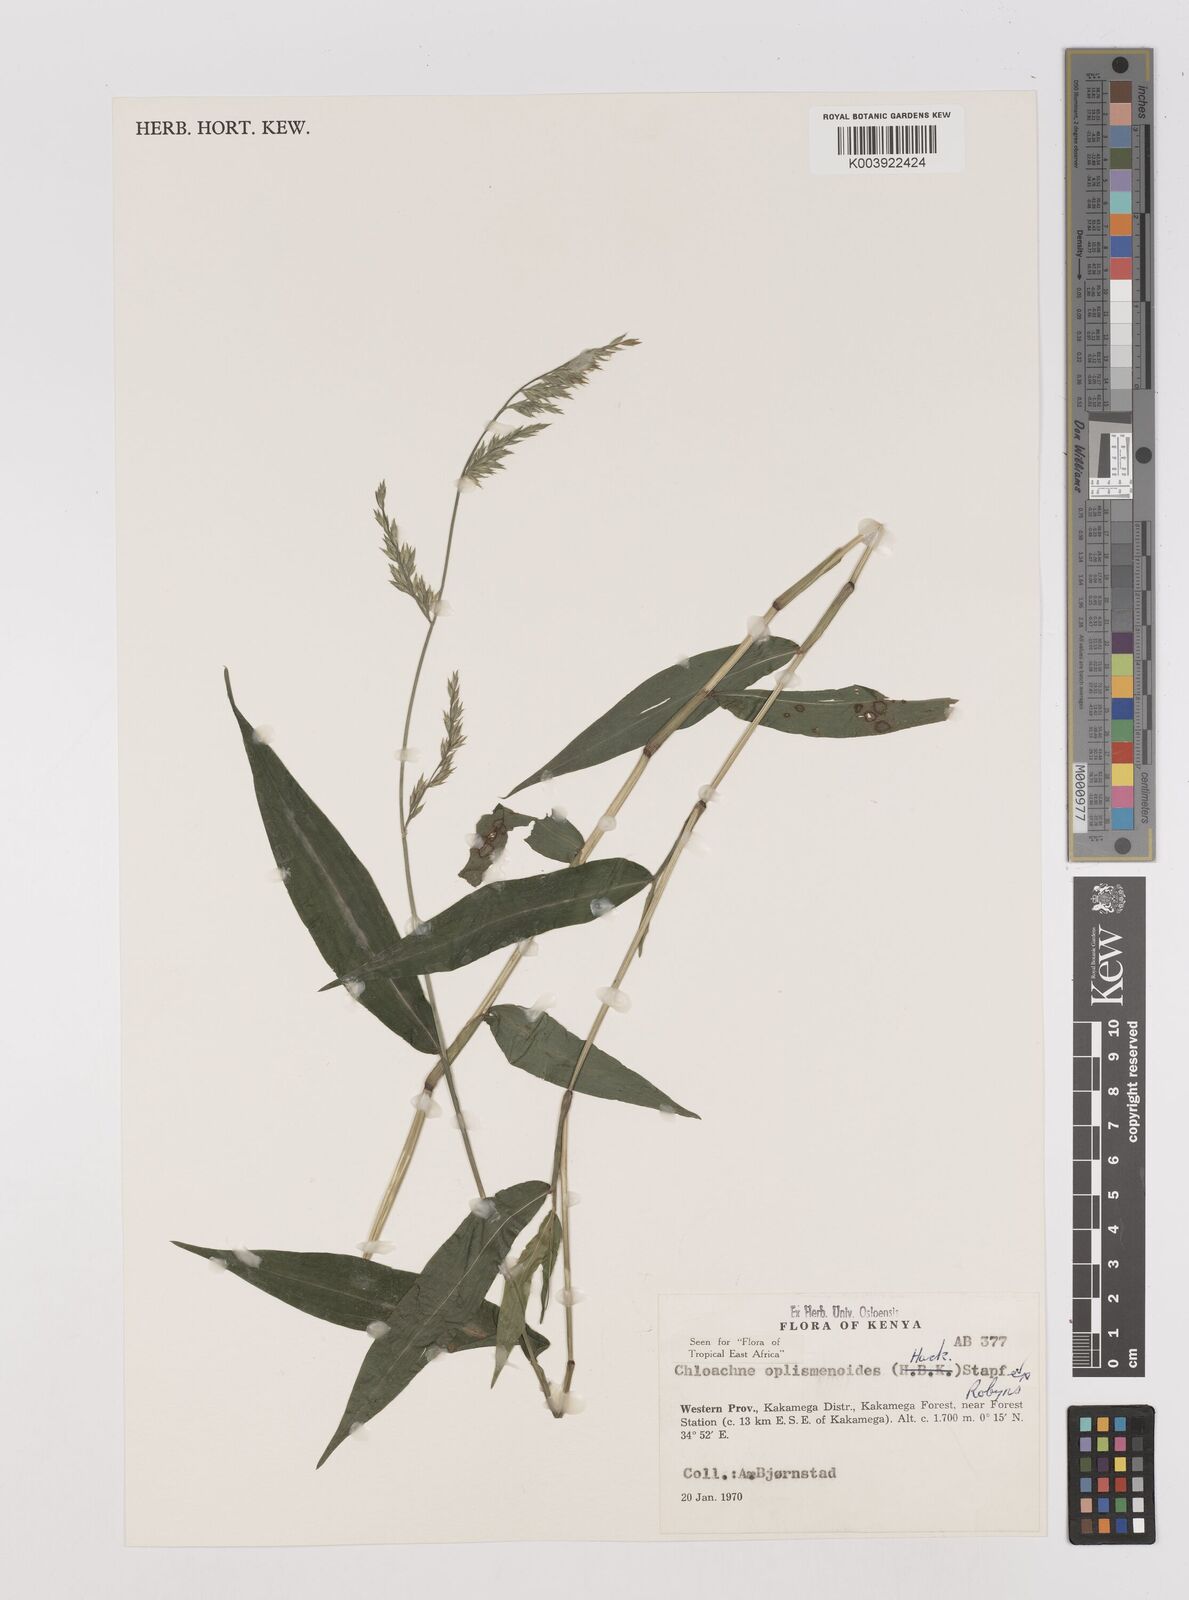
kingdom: Plantae
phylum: Tracheophyta
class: Liliopsida
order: Poales
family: Poaceae
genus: Poecilostachys
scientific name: Poecilostachys oplismenoides
